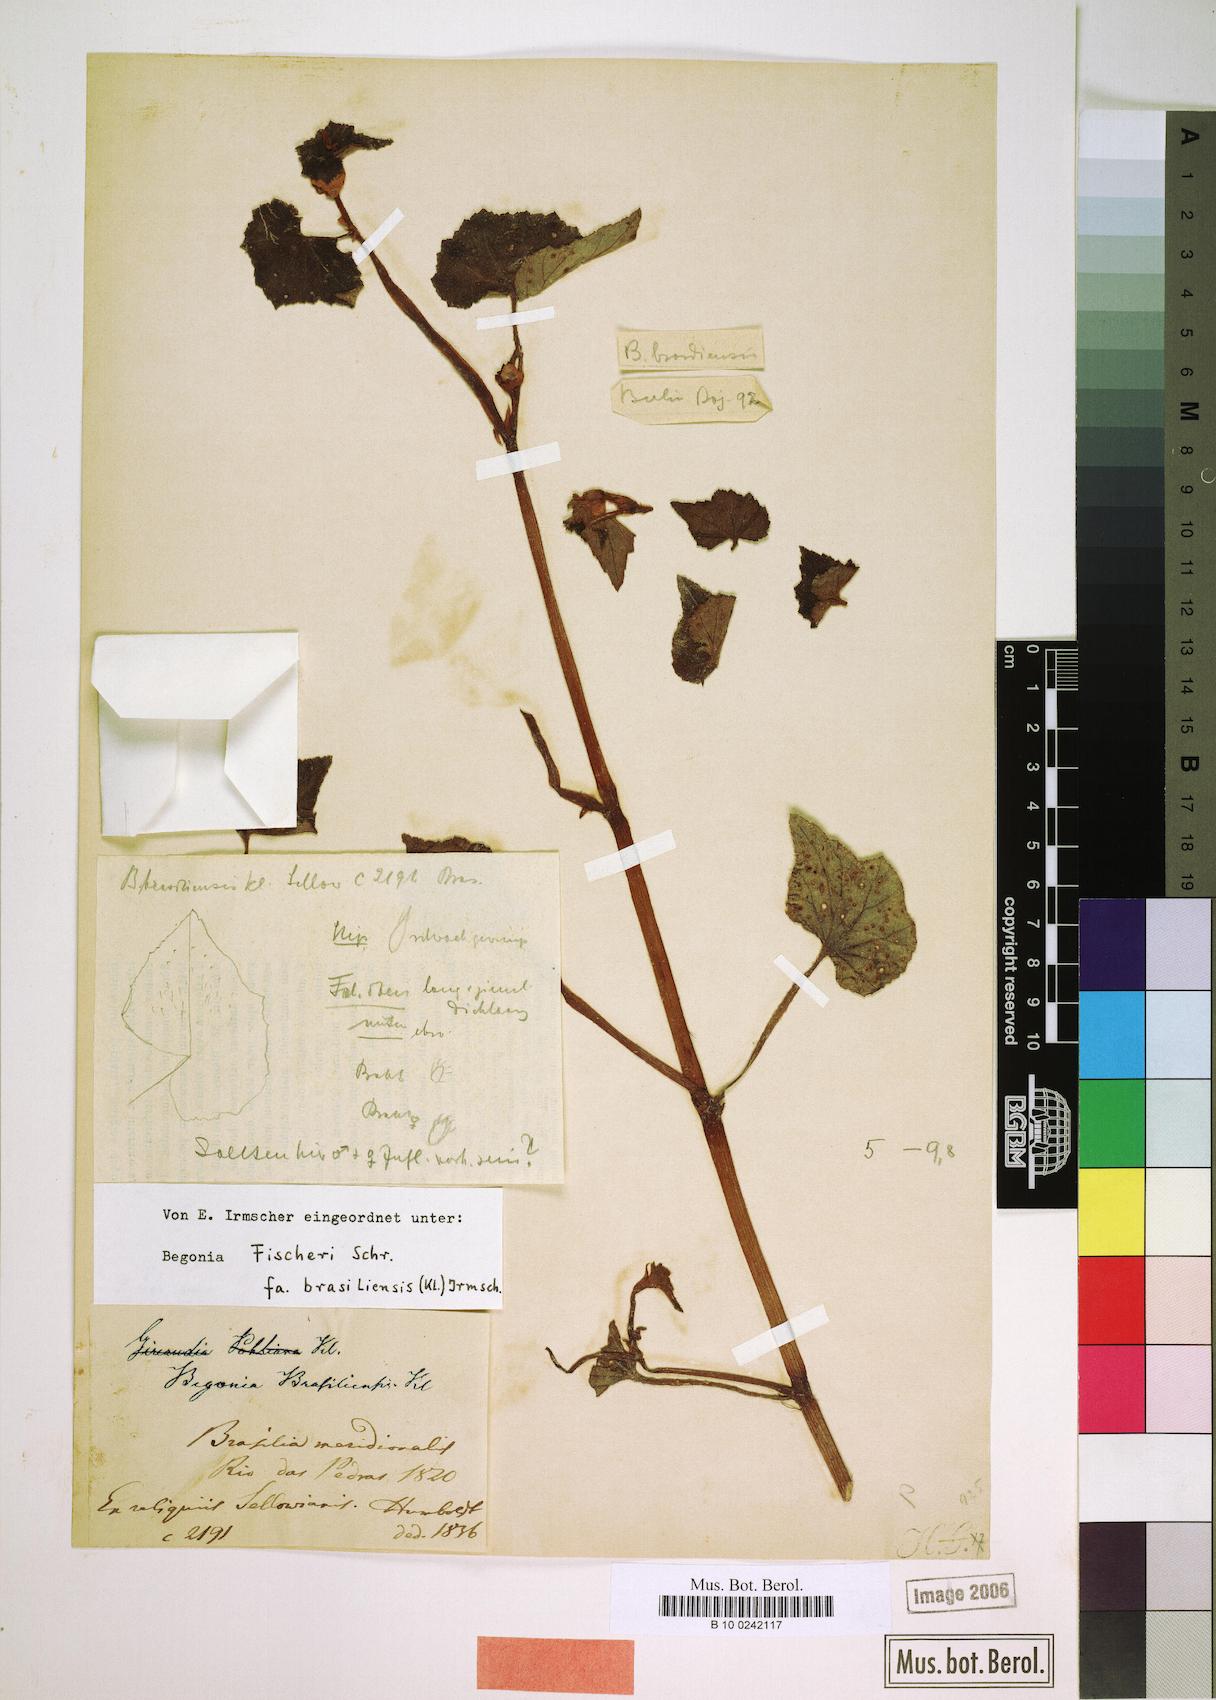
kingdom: Plantae
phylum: Tracheophyta
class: Magnoliopsida
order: Cucurbitales
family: Begoniaceae
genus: Begonia
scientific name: Begonia fischeri
